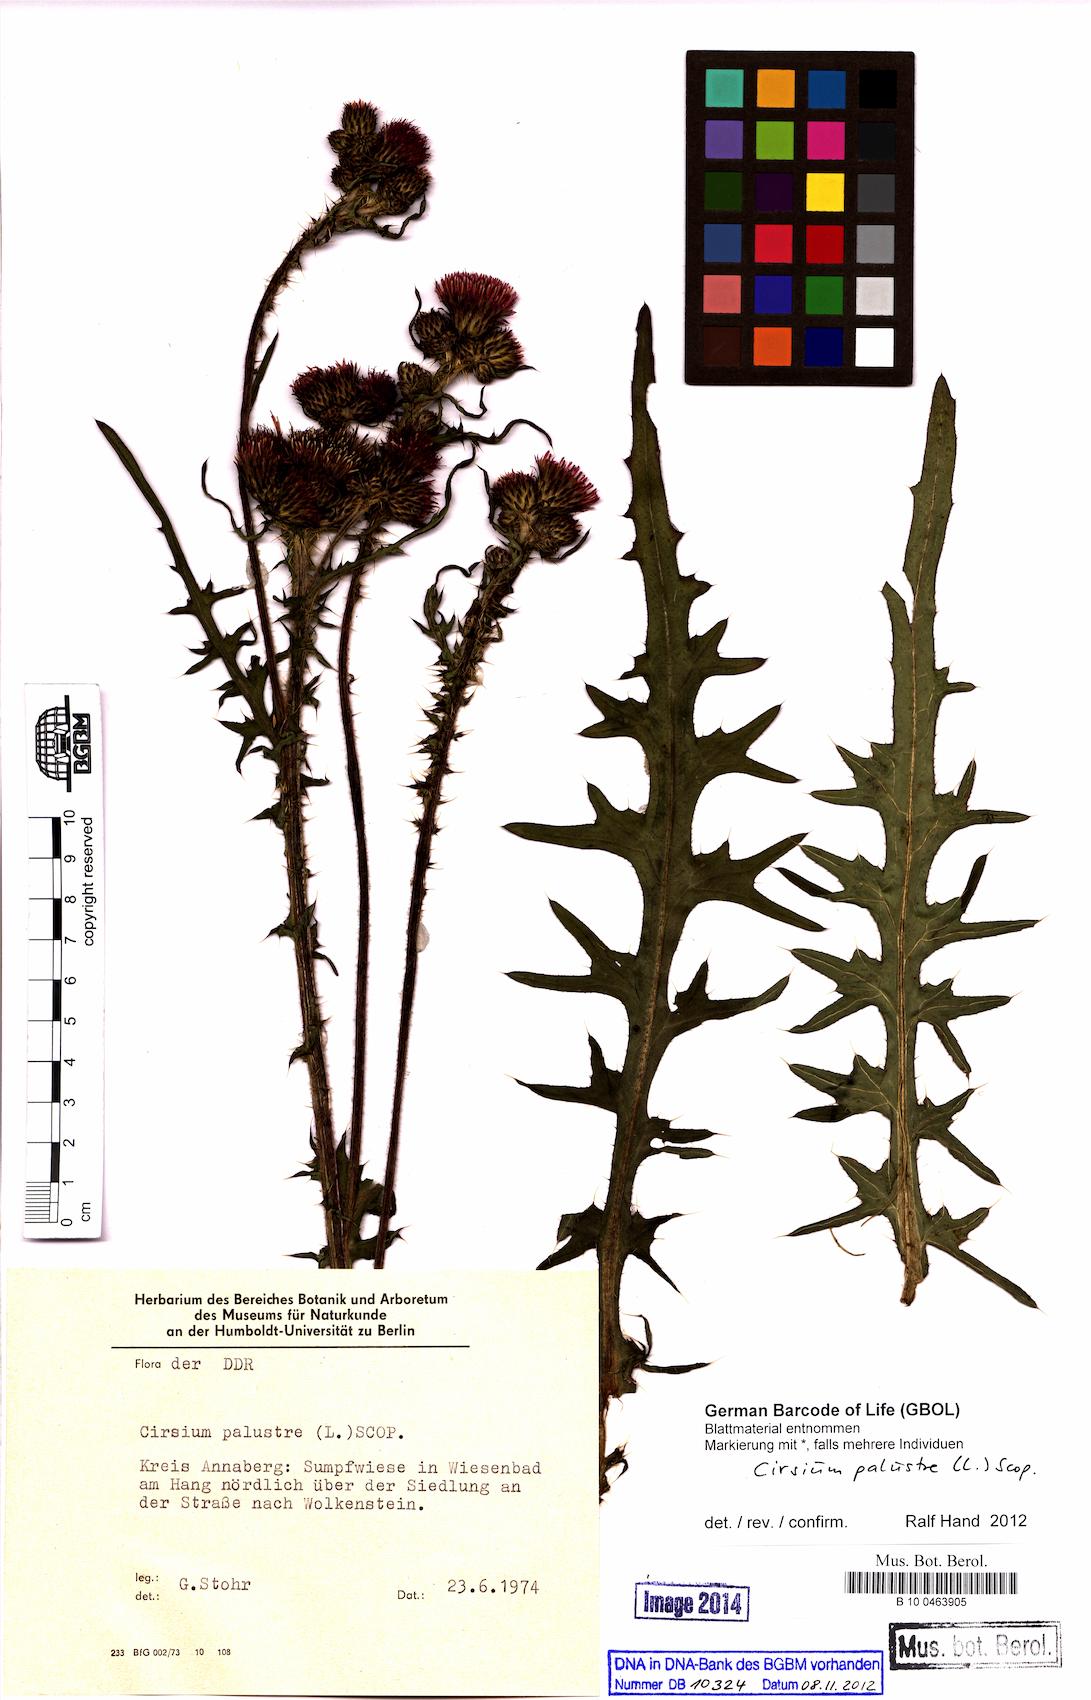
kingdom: Plantae
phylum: Tracheophyta
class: Magnoliopsida
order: Asterales
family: Asteraceae
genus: Cirsium
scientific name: Cirsium palustre
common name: Marsh thistle
